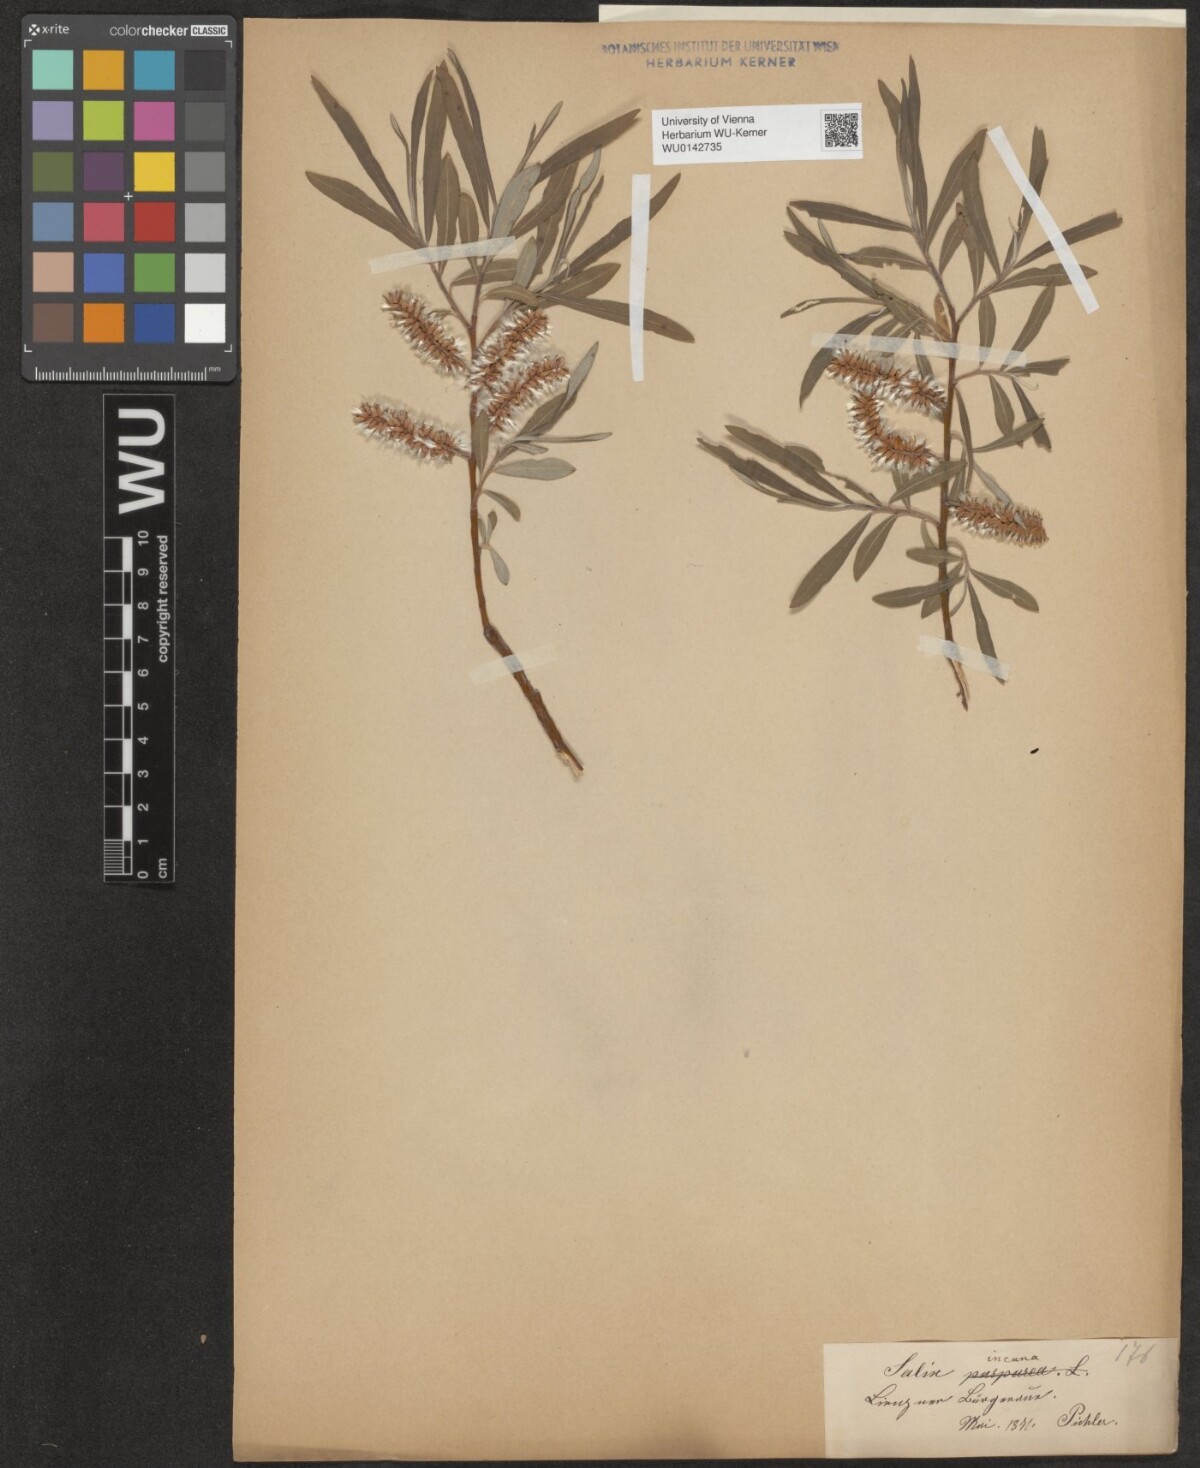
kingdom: Plantae
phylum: Tracheophyta
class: Magnoliopsida
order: Malpighiales
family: Salicaceae
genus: Salix
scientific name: Salix eleagnos
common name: Elaeagnus willow
